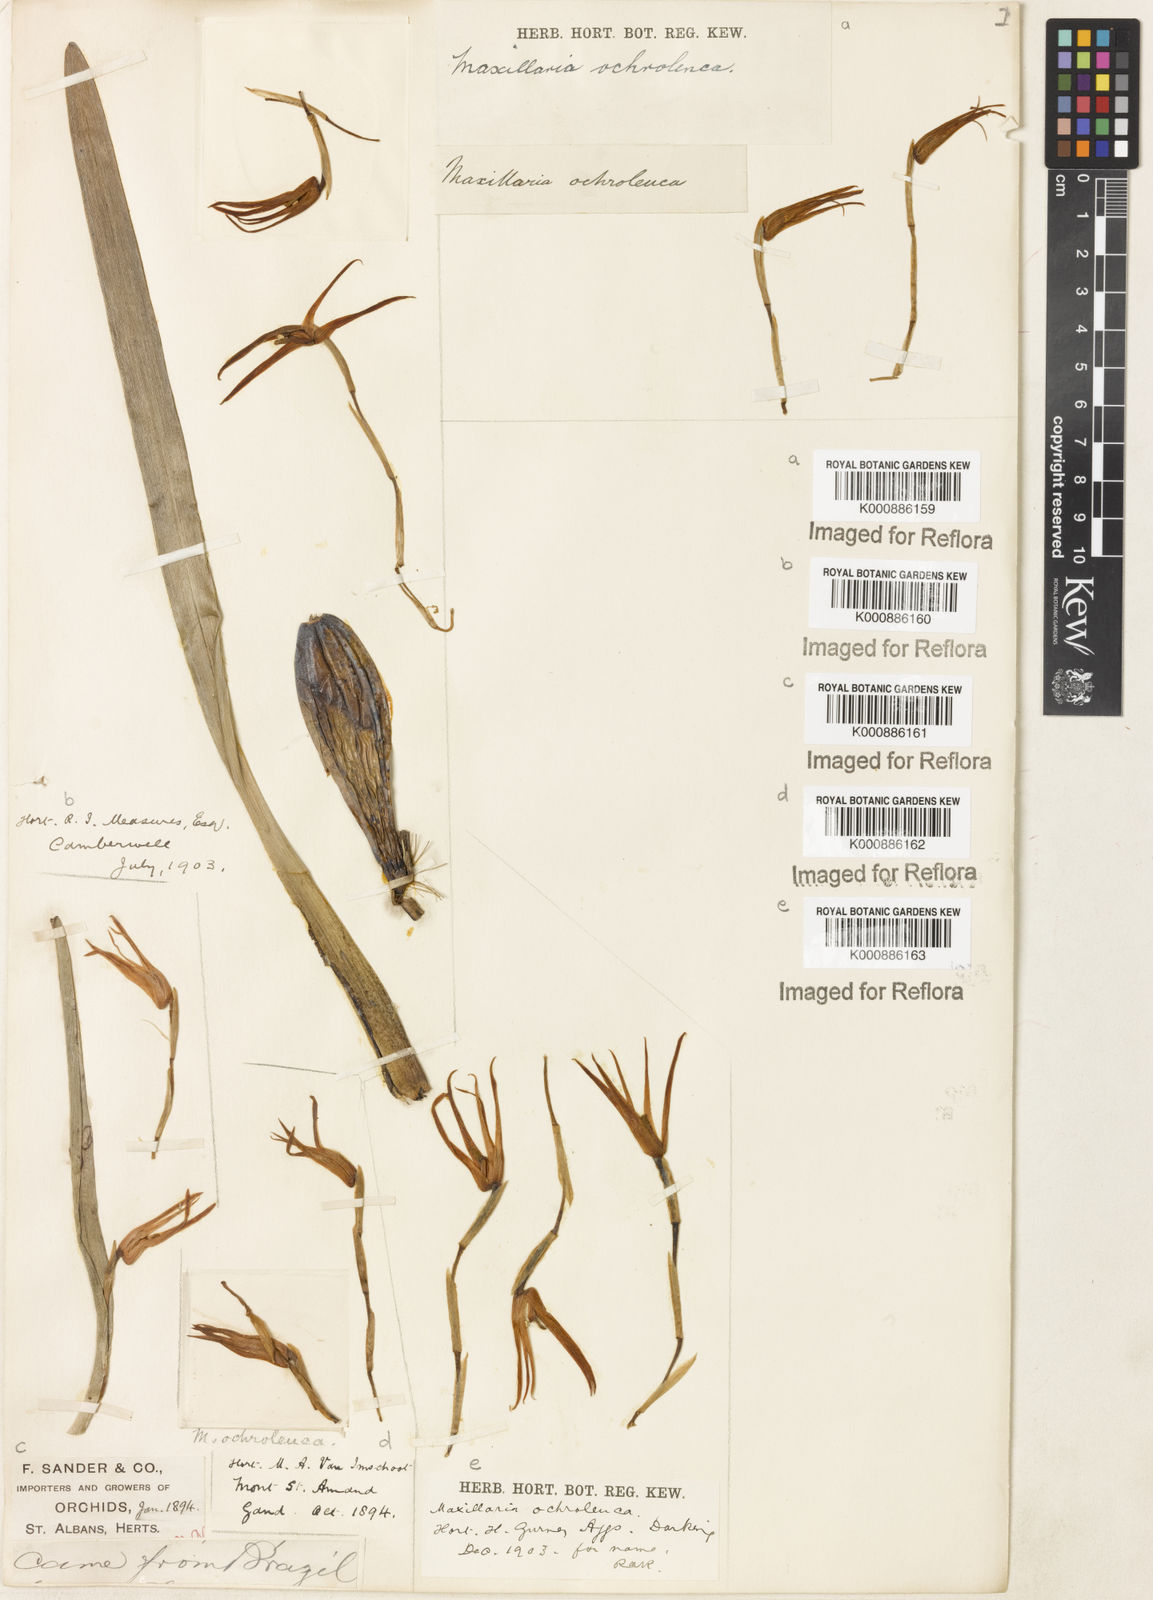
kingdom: Plantae
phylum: Tracheophyta
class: Liliopsida
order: Asparagales
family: Orchidaceae
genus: Maxillaria
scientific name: Maxillaria ochroleuca
